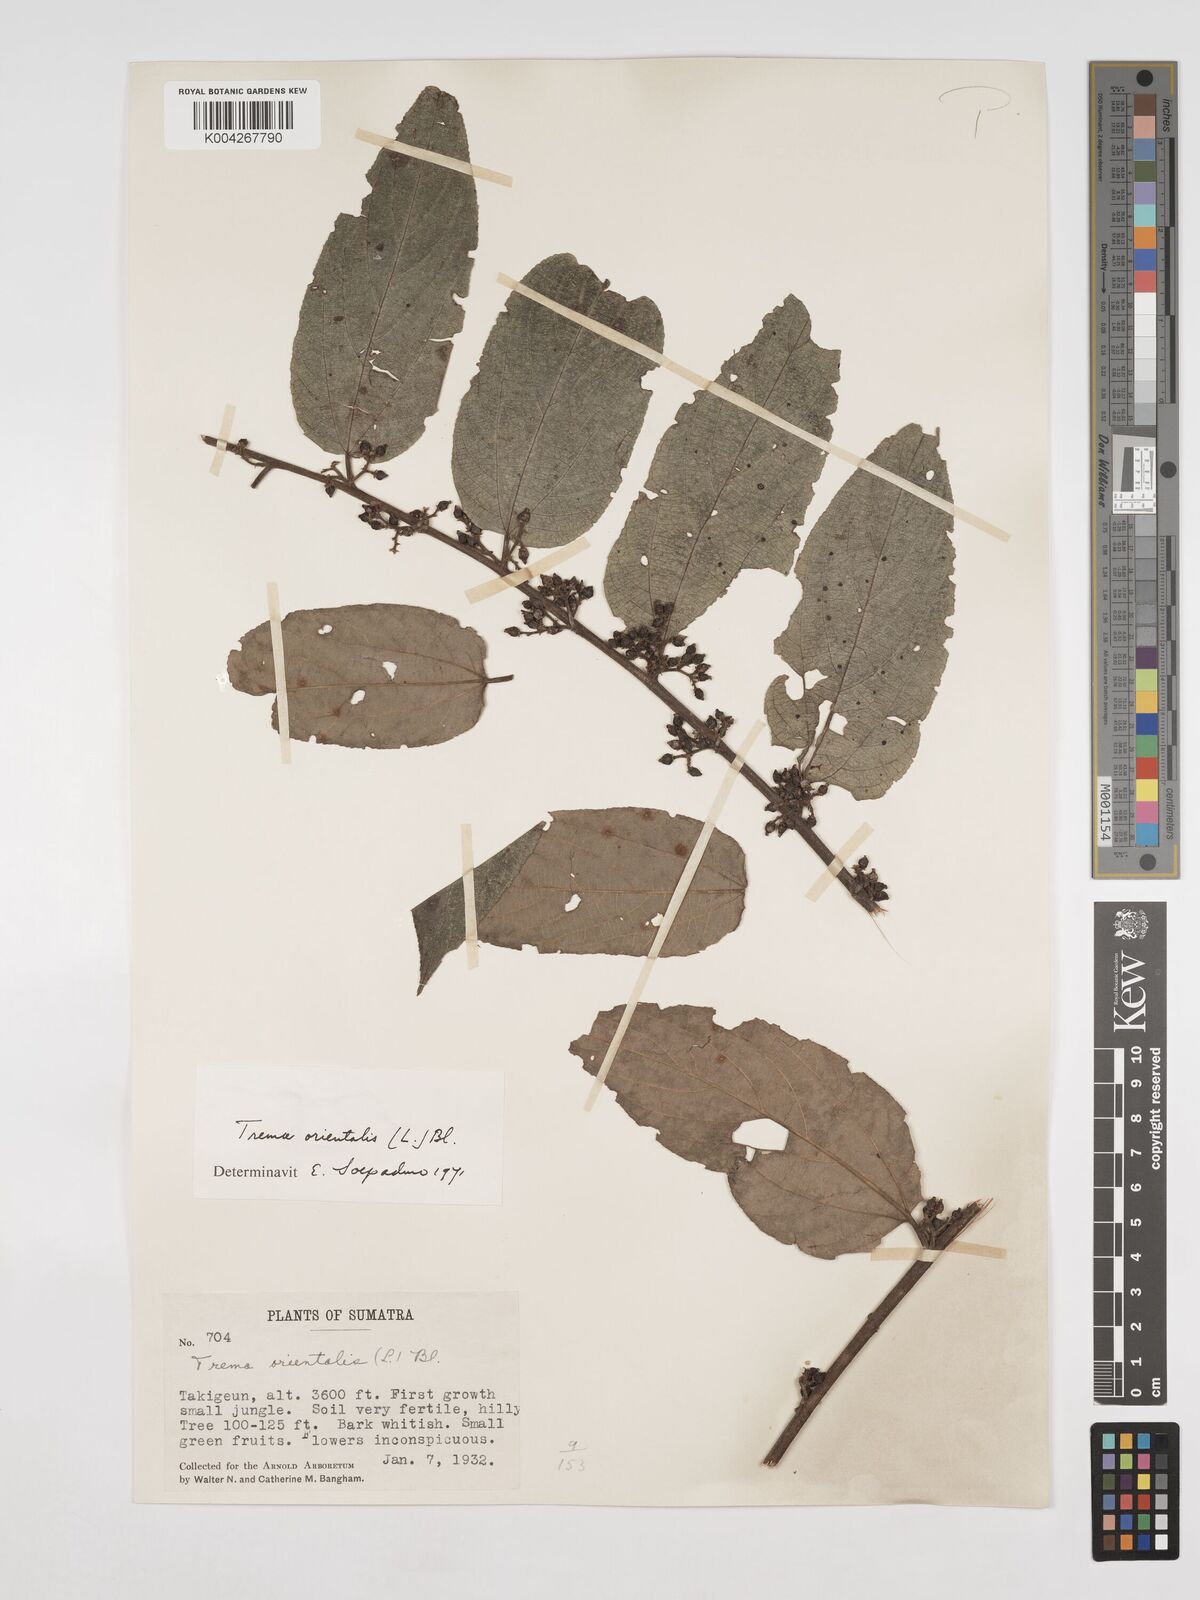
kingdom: Plantae
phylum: Tracheophyta
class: Magnoliopsida
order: Rosales
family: Cannabaceae
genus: Trema
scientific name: Trema orientale
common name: Indian charcoal tree
